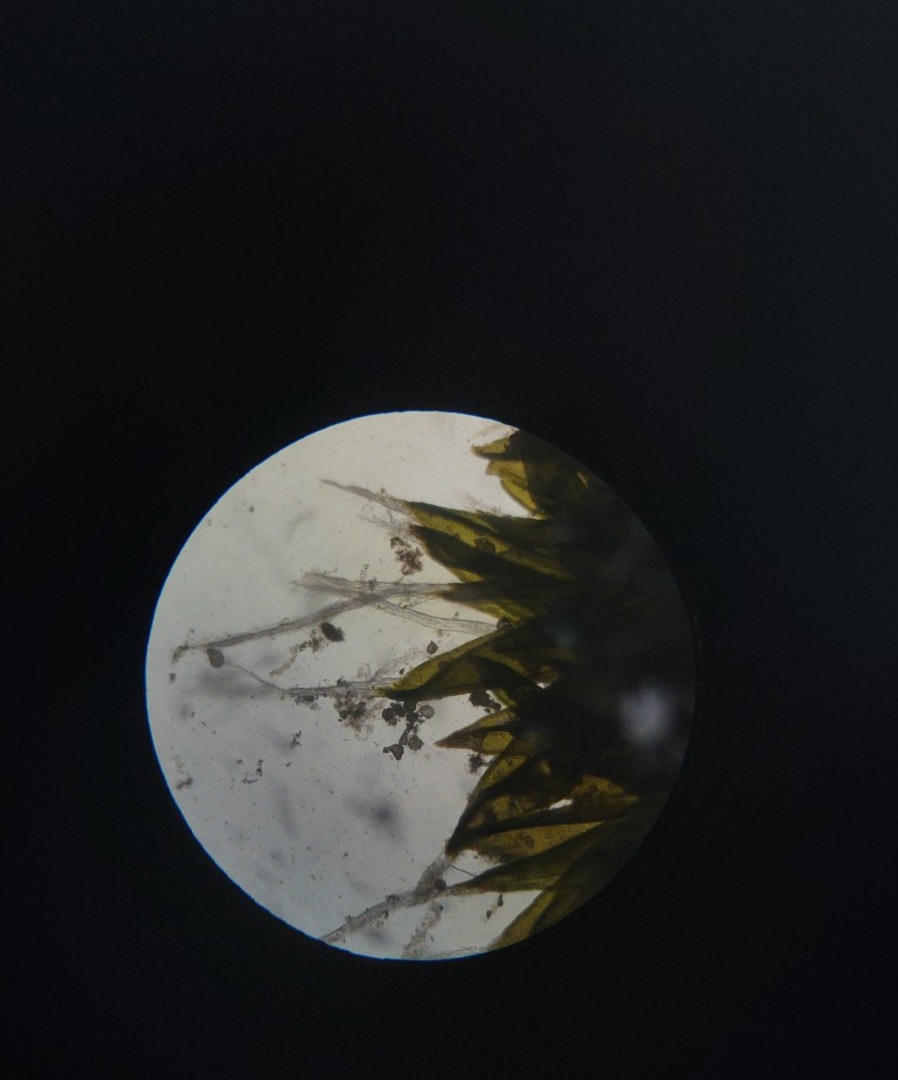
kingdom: Plantae
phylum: Bryophyta
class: Bryopsida
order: Grimmiales
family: Grimmiaceae
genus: Grimmia
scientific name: Grimmia pulvinata
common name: Pude-gråmos
